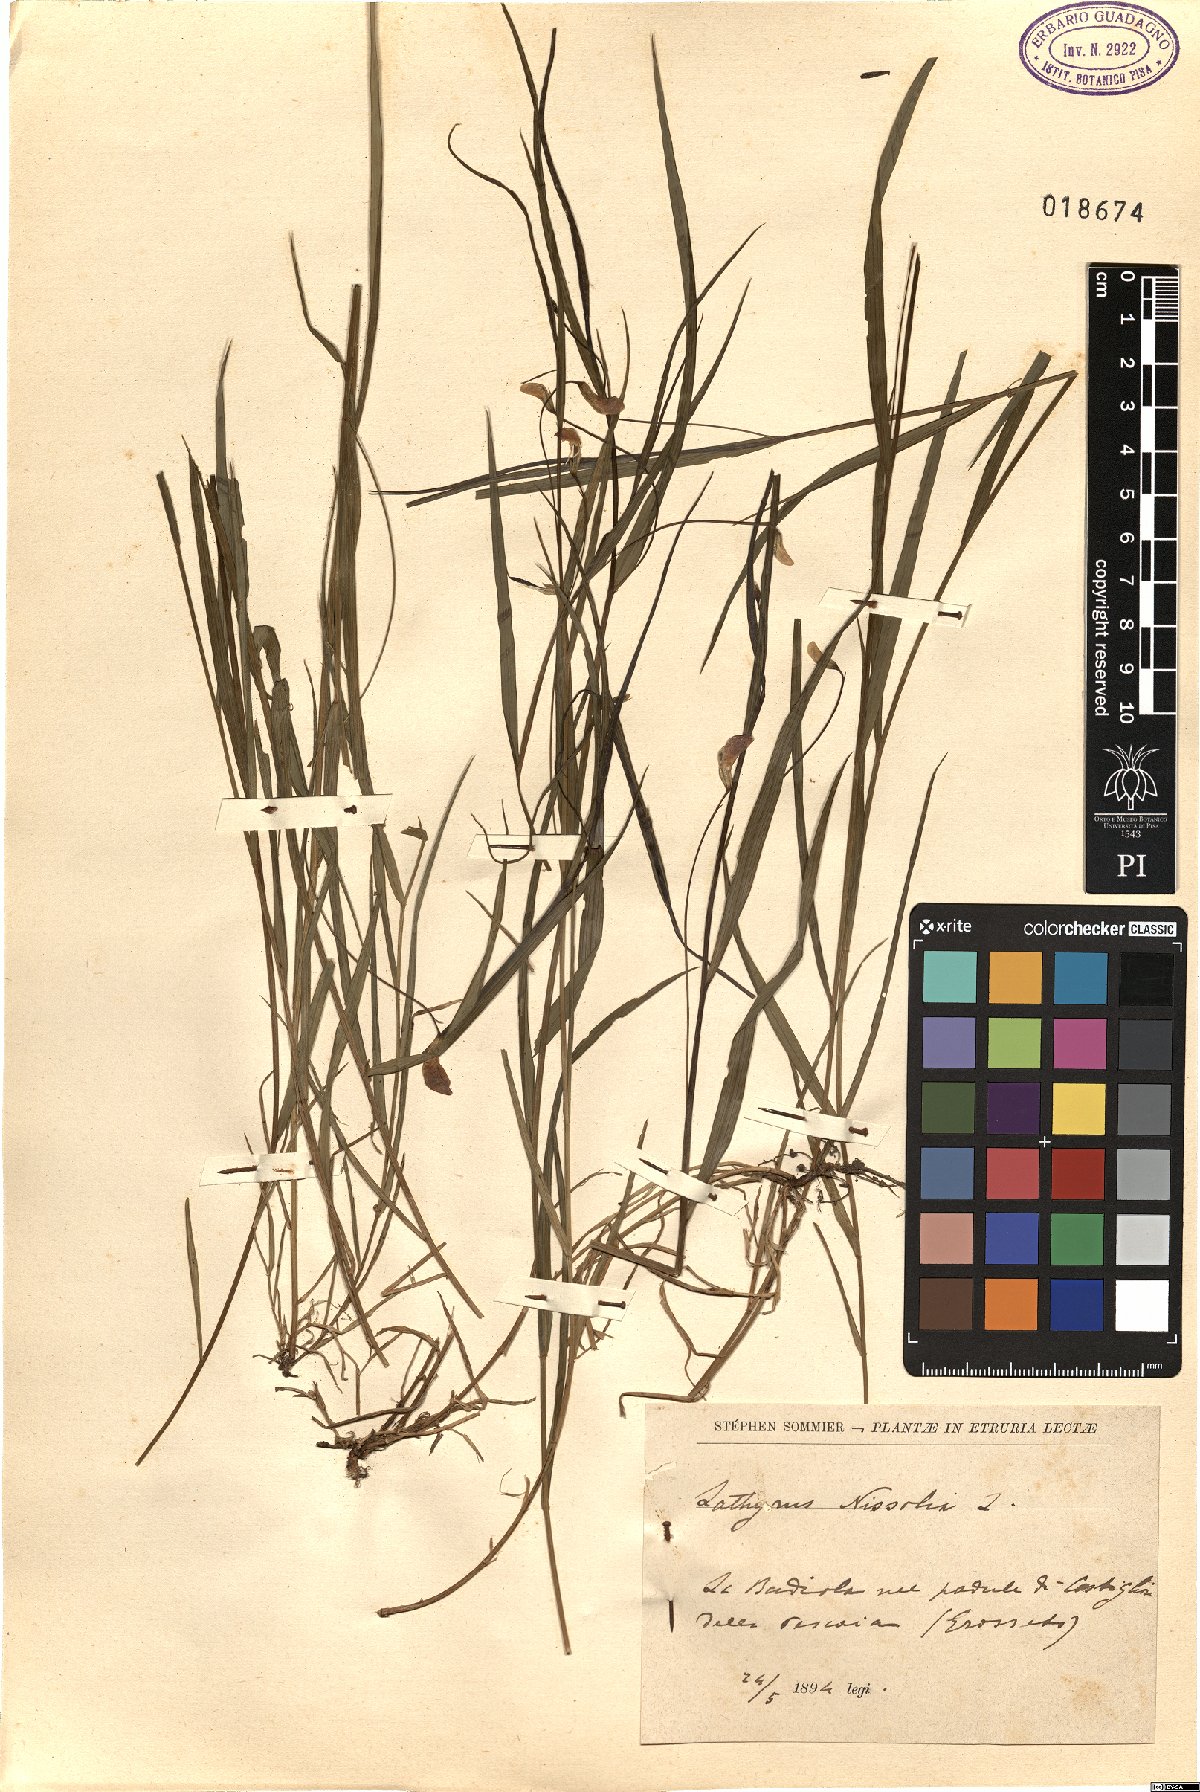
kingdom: Plantae
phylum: Tracheophyta
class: Magnoliopsida
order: Fabales
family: Fabaceae
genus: Lathyrus
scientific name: Lathyrus nissolia
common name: Grass vetchling
